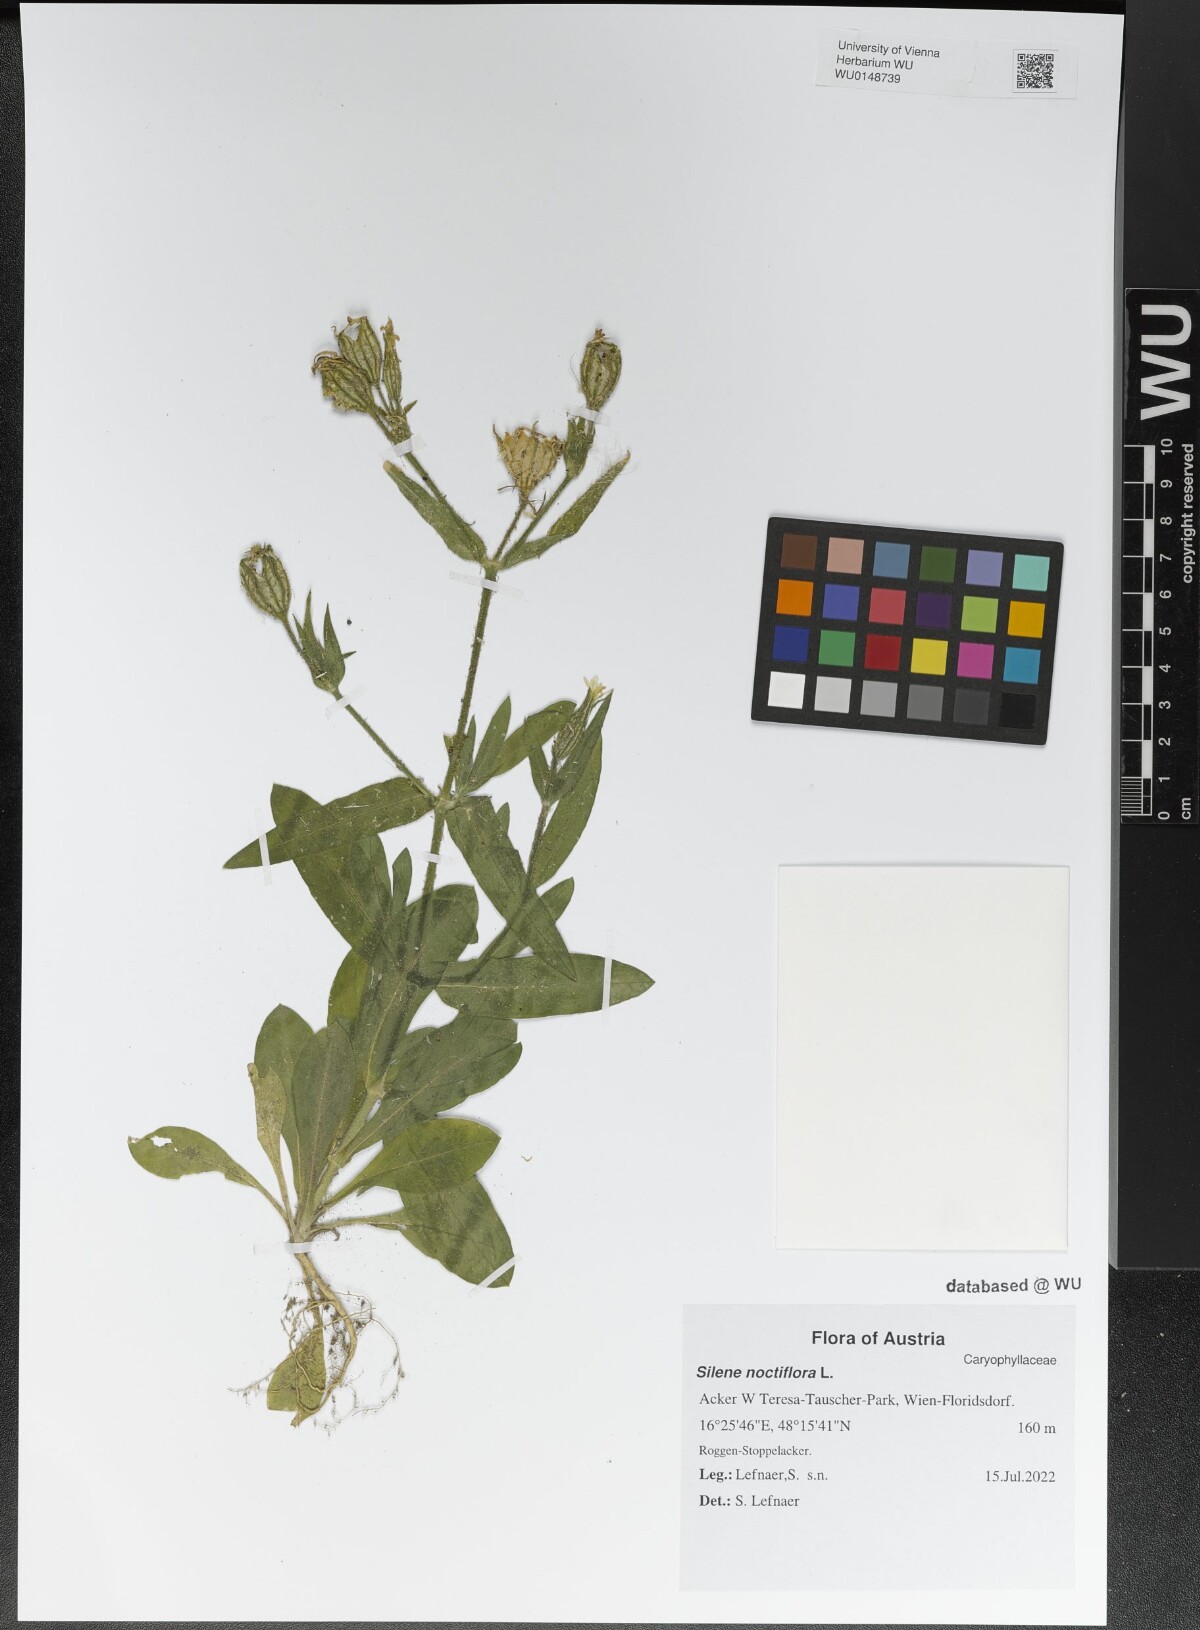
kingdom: Plantae
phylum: Tracheophyta
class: Magnoliopsida
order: Caryophyllales
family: Caryophyllaceae
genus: Silene
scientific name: Silene noctiflora
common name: Night-flowering catchfly
